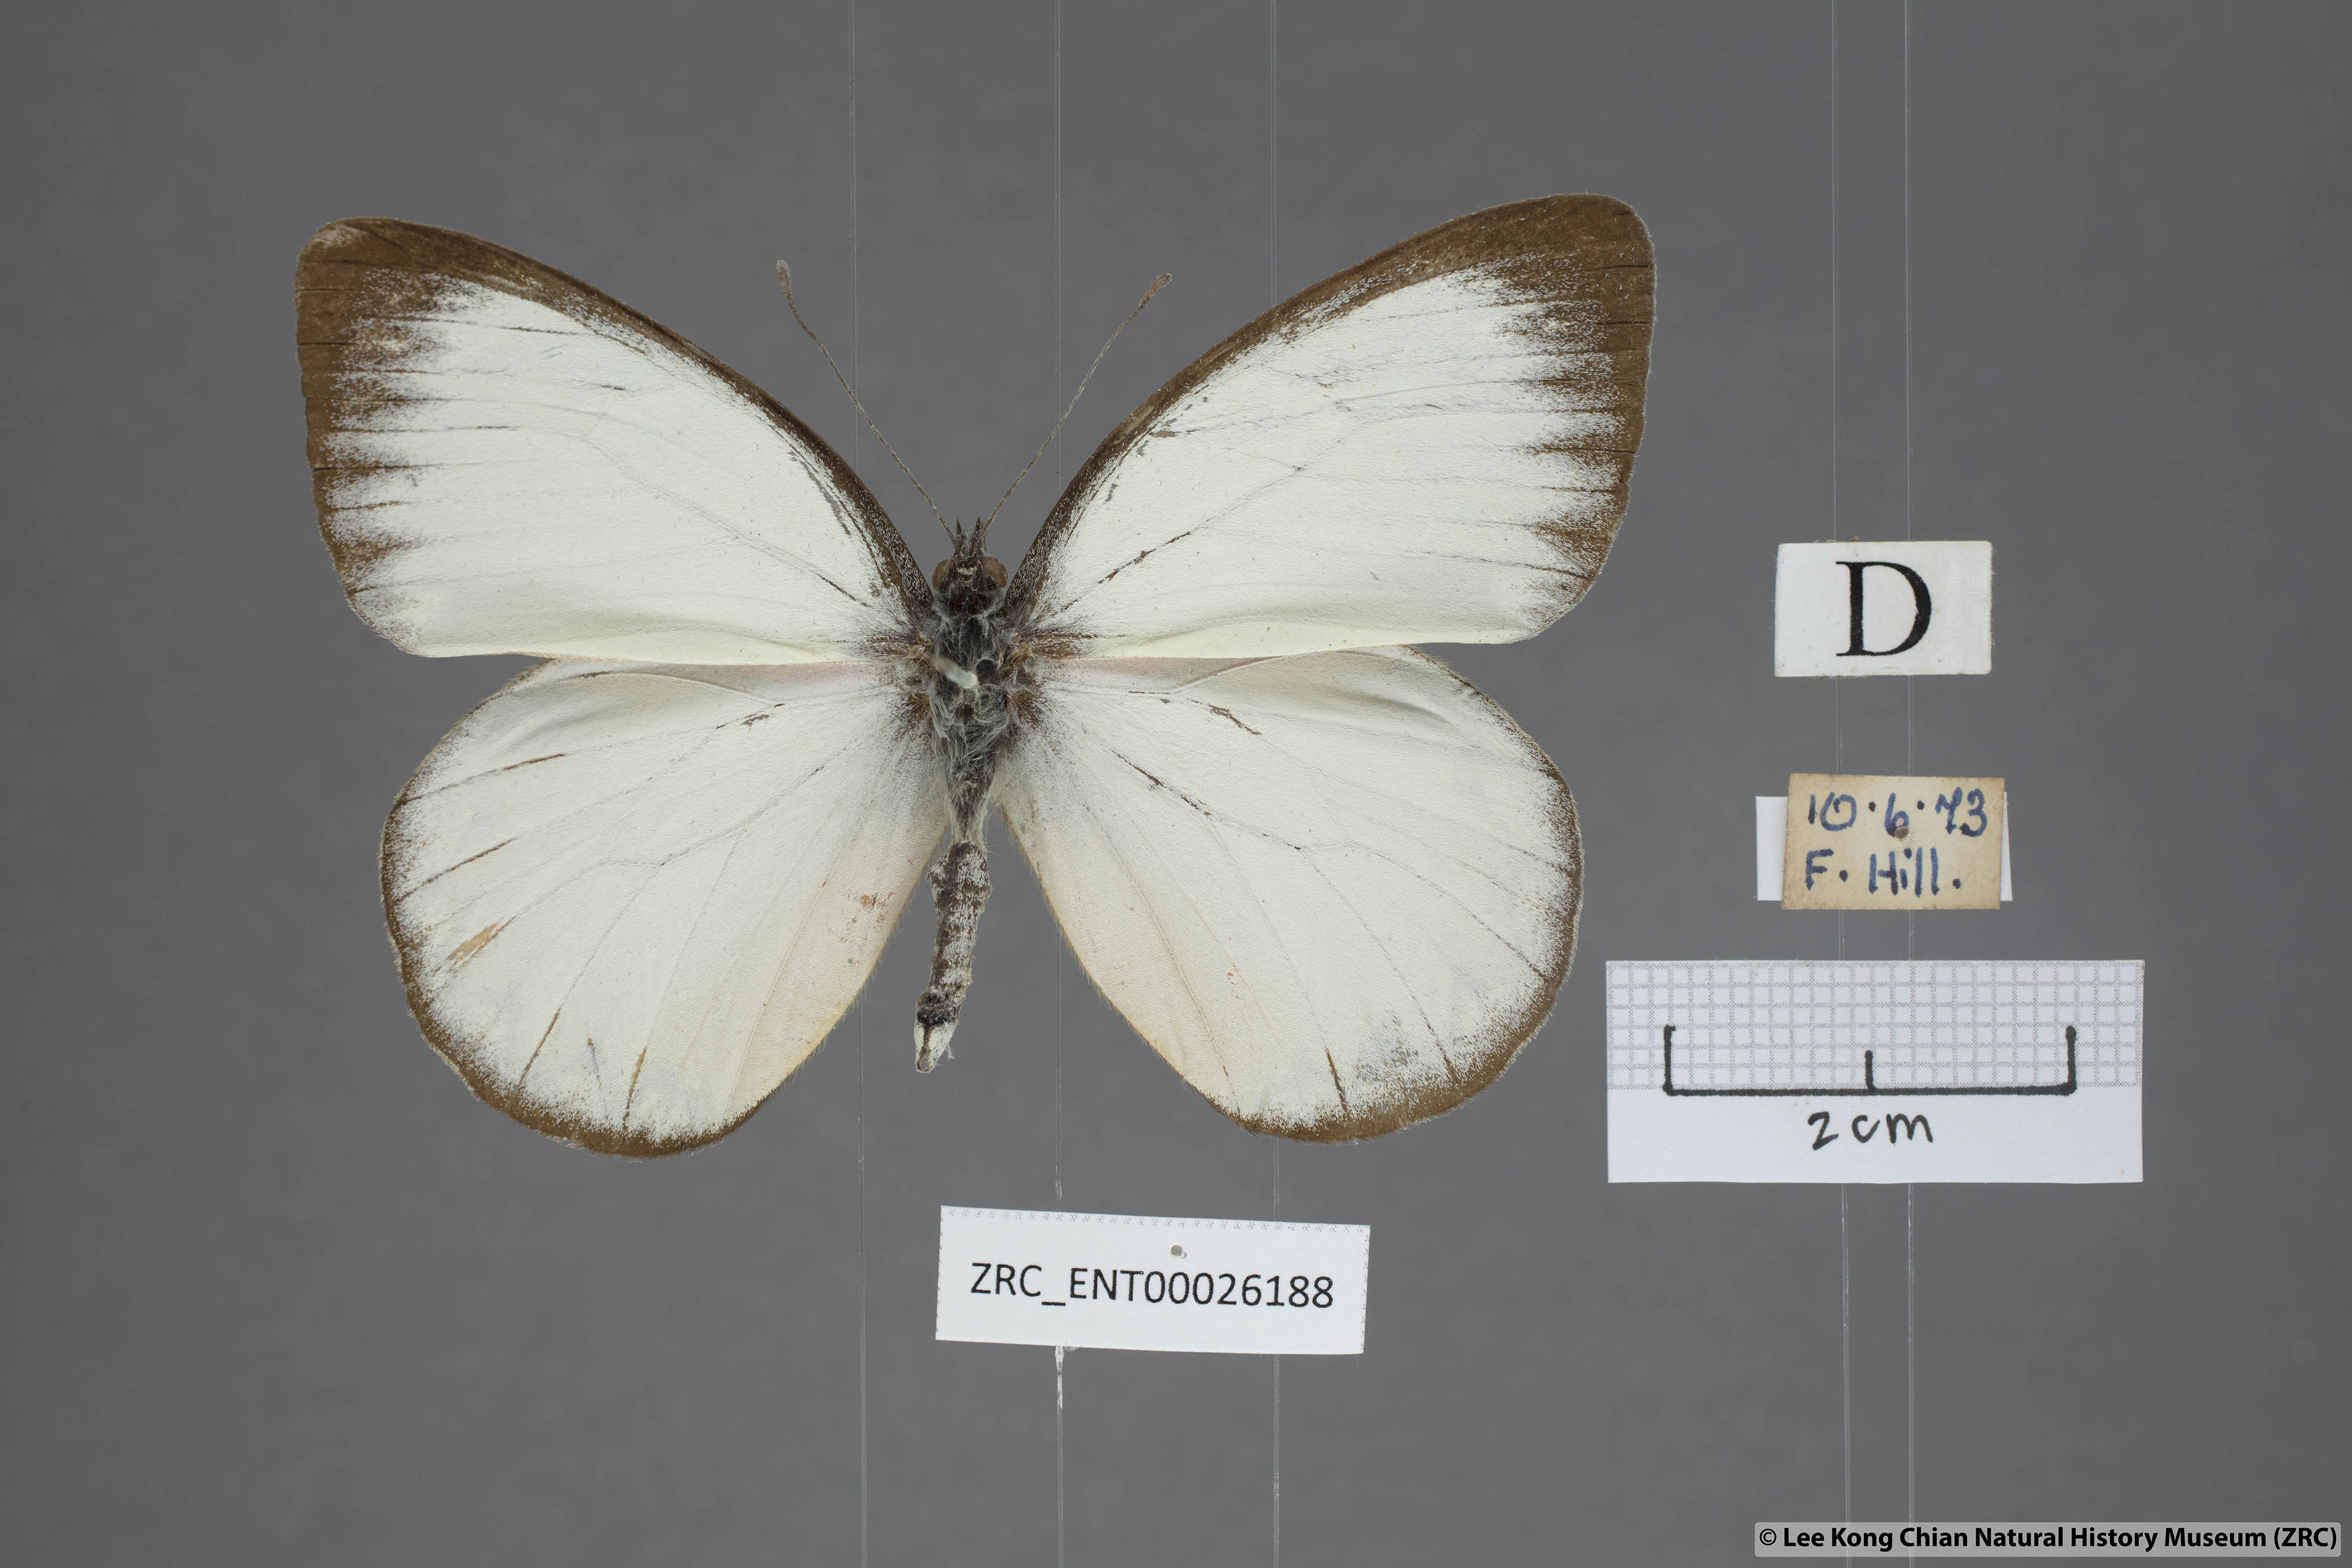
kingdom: Animalia
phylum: Arthropoda
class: Insecta
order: Lepidoptera
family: Pieridae
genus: Delias
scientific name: Delias descombesi
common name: Red-spot jezebel
